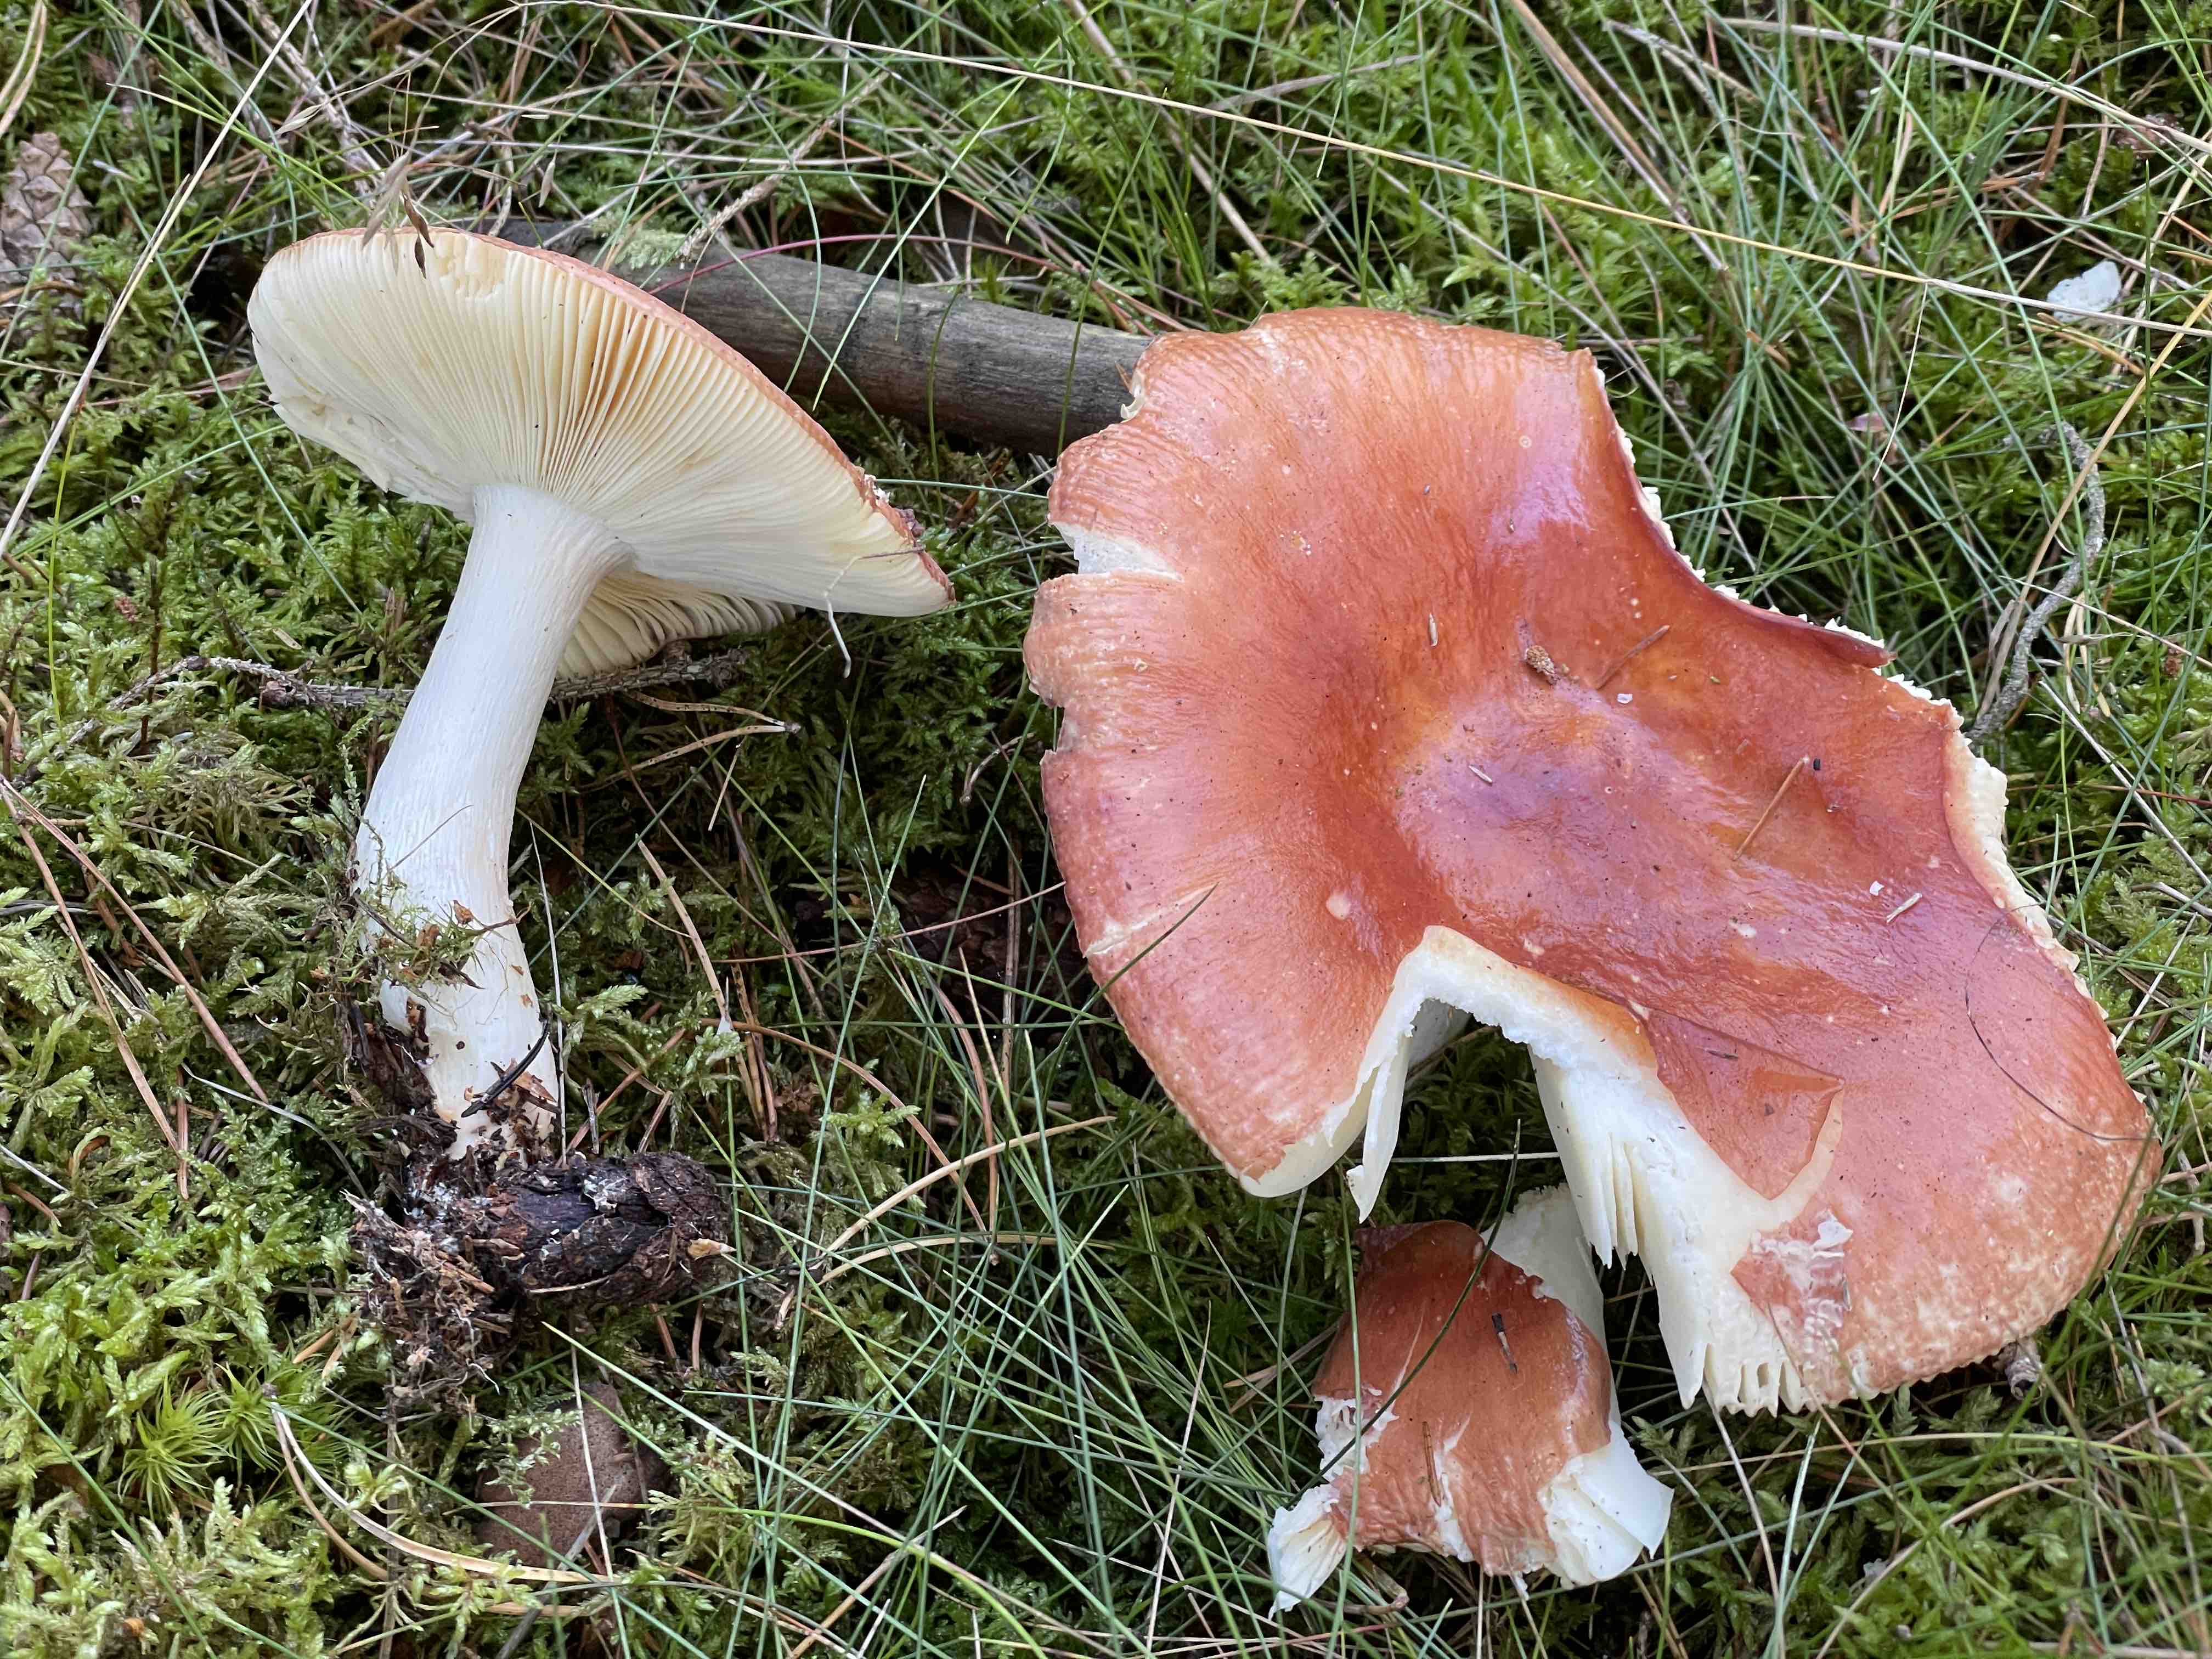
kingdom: Fungi
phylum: Basidiomycota
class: Agaricomycetes
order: Russulales
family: Russulaceae
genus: Russula
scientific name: Russula paludosa
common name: prægtig skørhat
